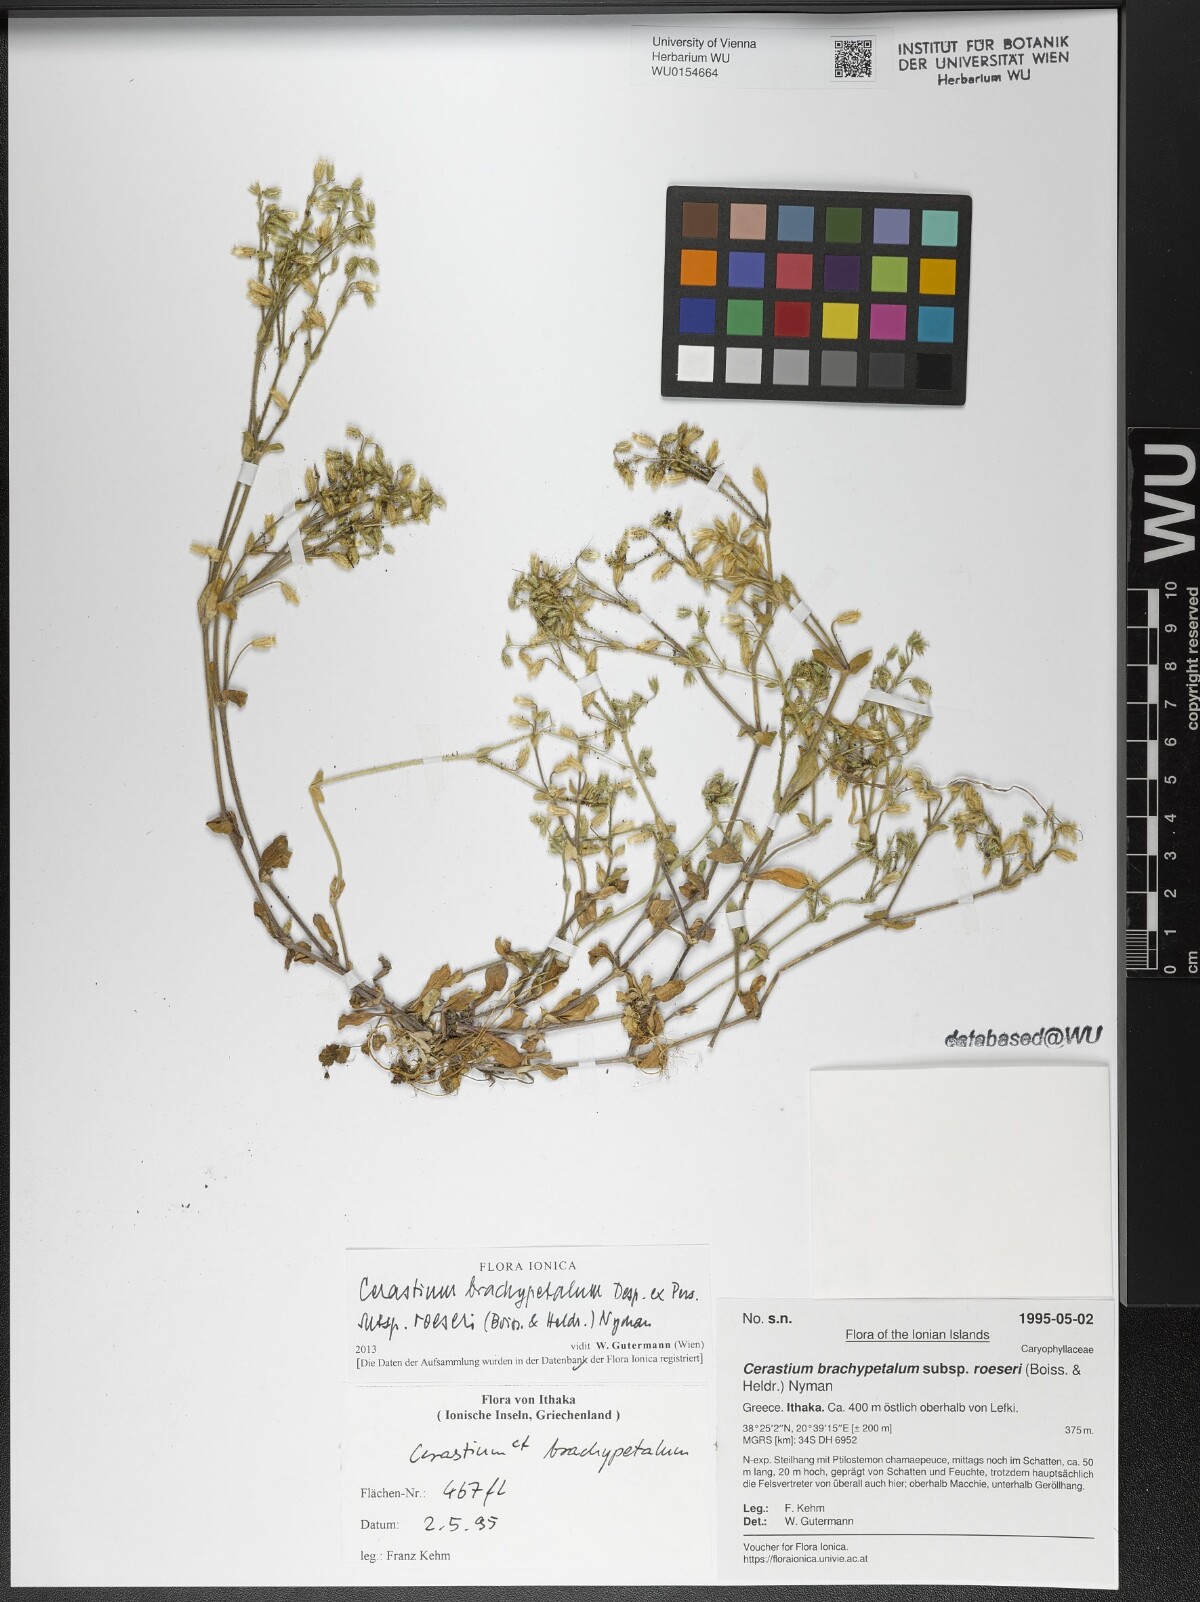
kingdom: Plantae
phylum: Tracheophyta
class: Magnoliopsida
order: Caryophyllales
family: Caryophyllaceae
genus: Cerastium
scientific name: Cerastium brachypetalum
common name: Grey mouse-ear
